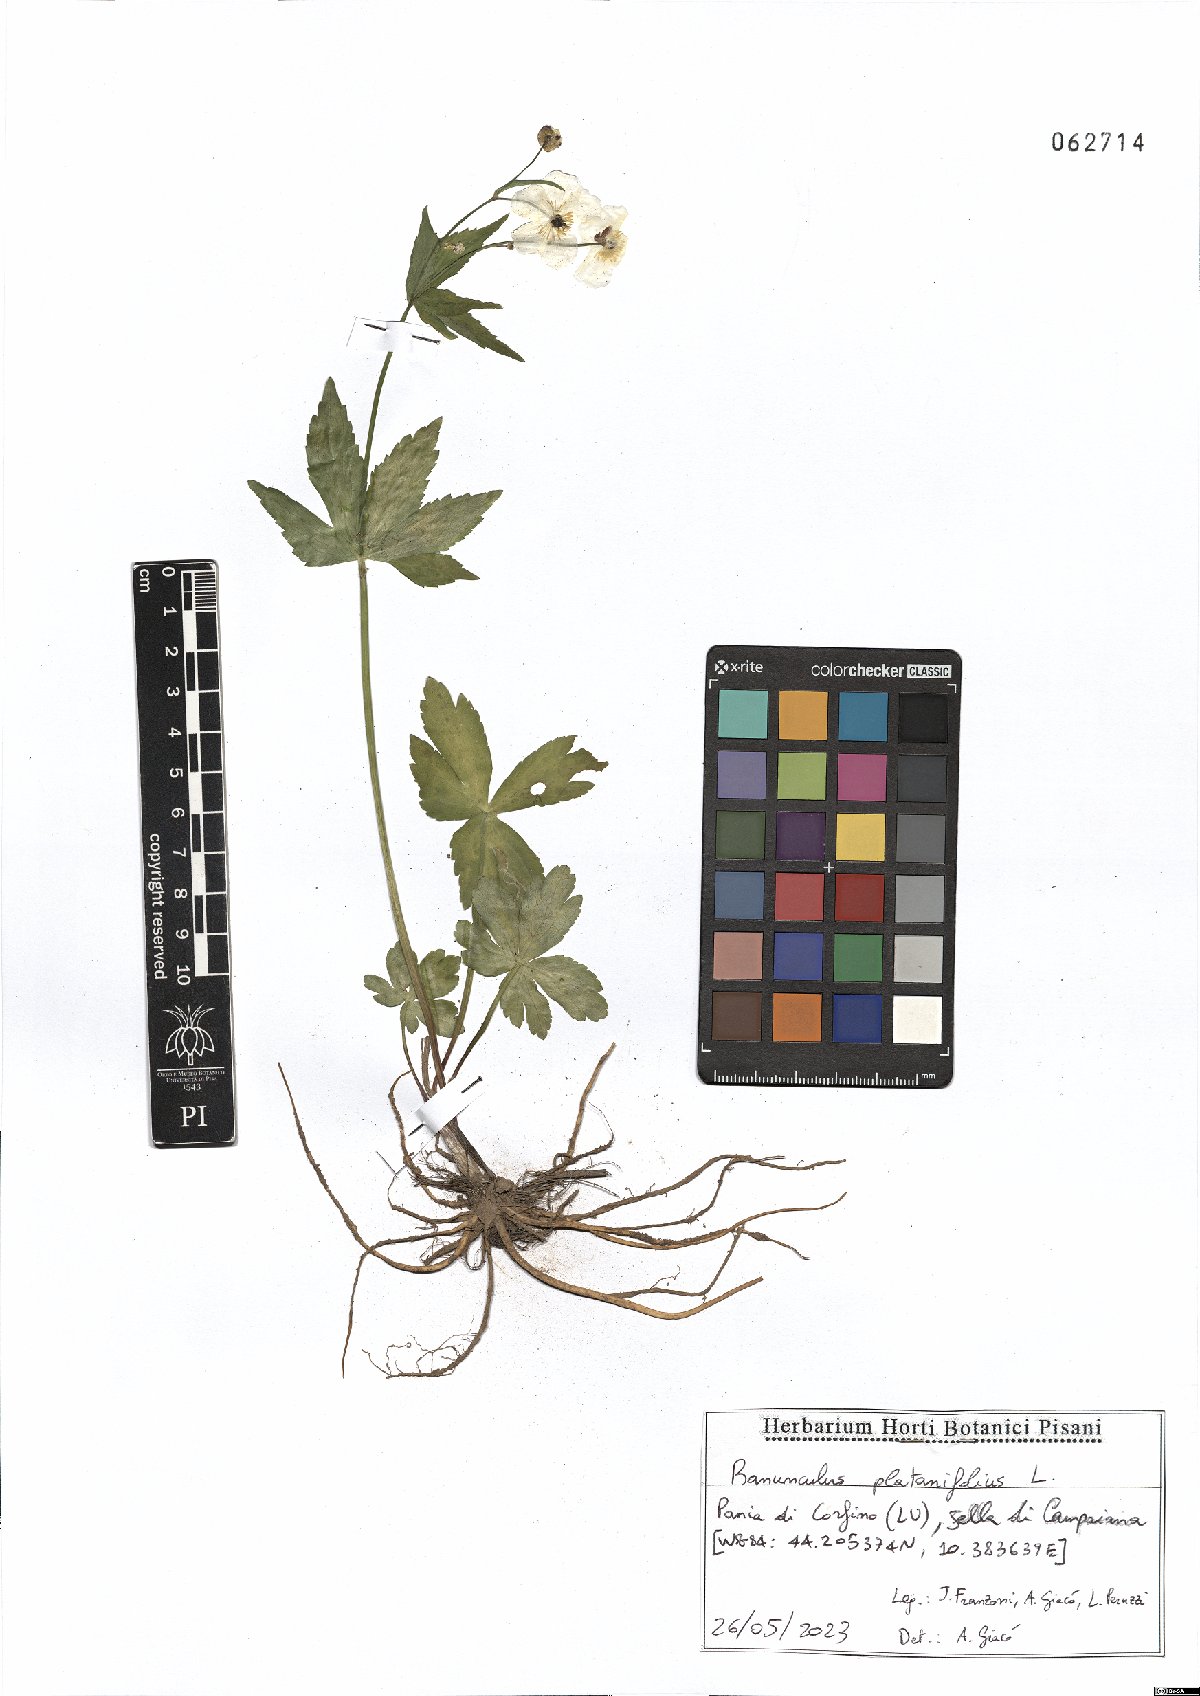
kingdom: Plantae
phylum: Tracheophyta
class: Magnoliopsida
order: Ranunculales
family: Ranunculaceae
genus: Ranunculus
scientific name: Ranunculus platanifolius
